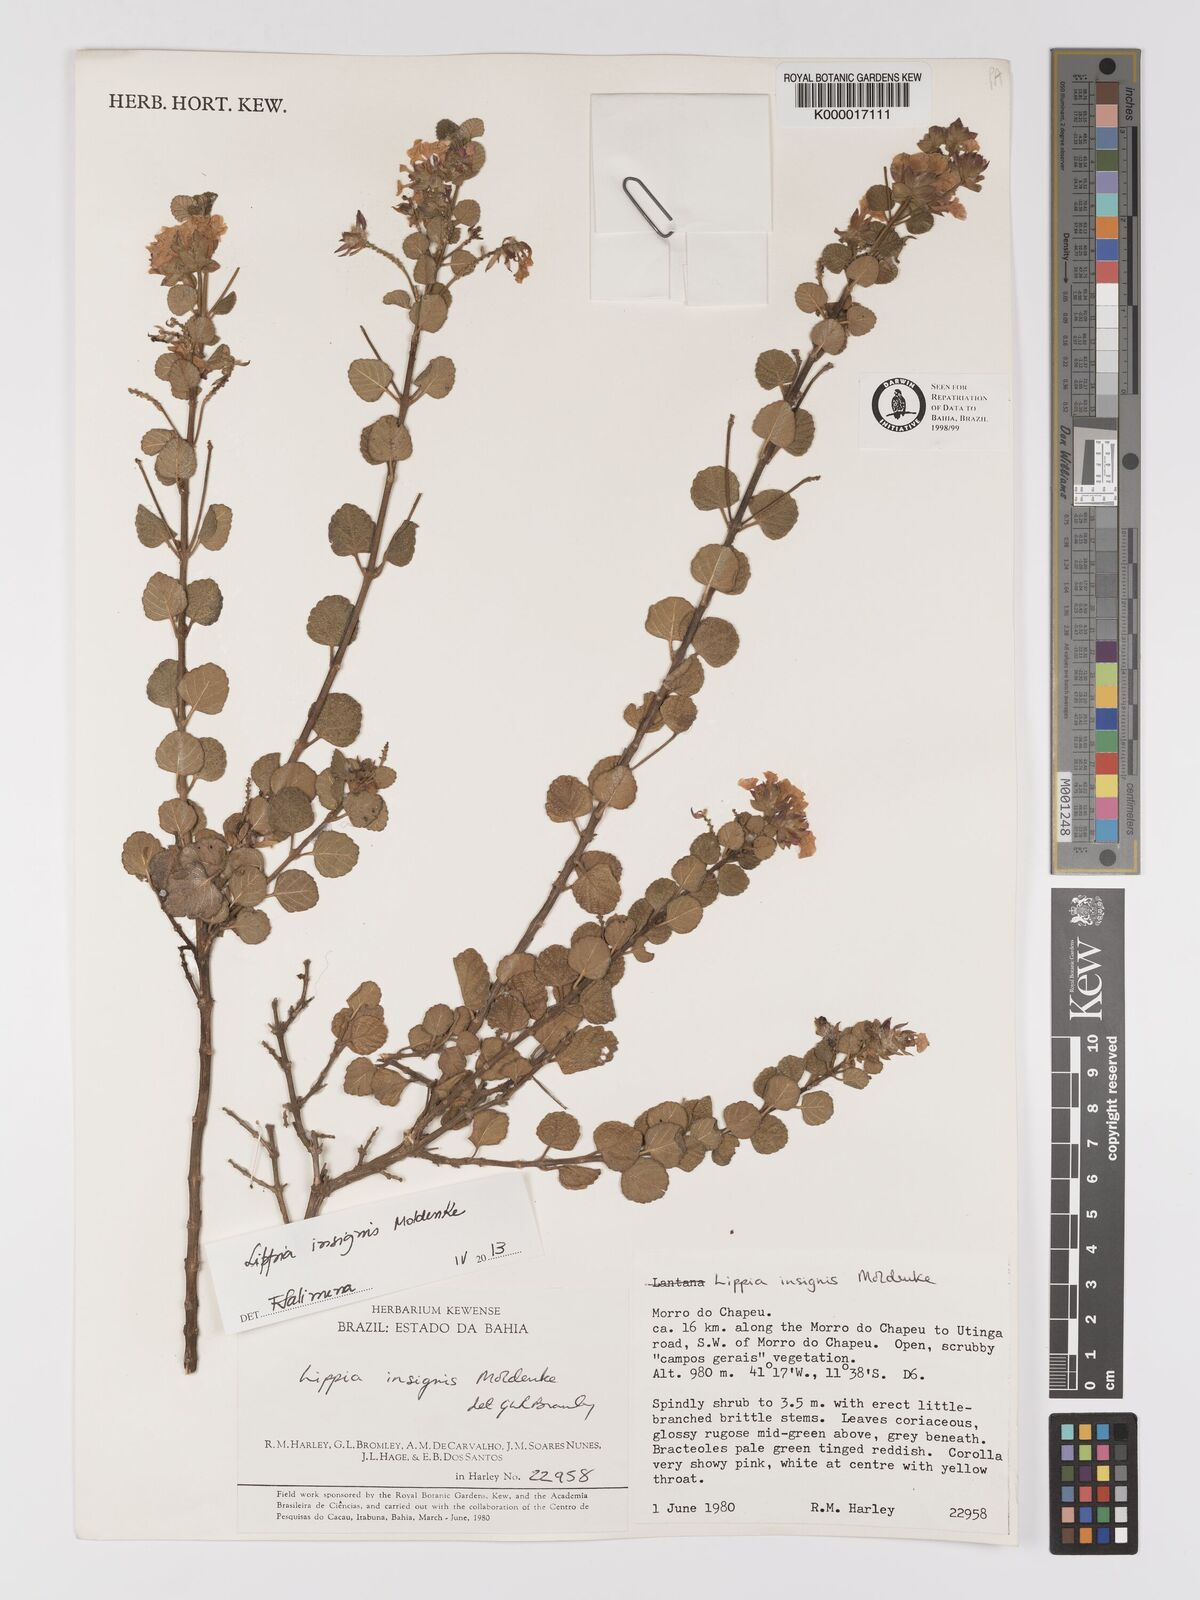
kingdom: Plantae
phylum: Tracheophyta
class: Magnoliopsida
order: Lamiales
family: Verbenaceae
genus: Lippia
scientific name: Lippia insignis
